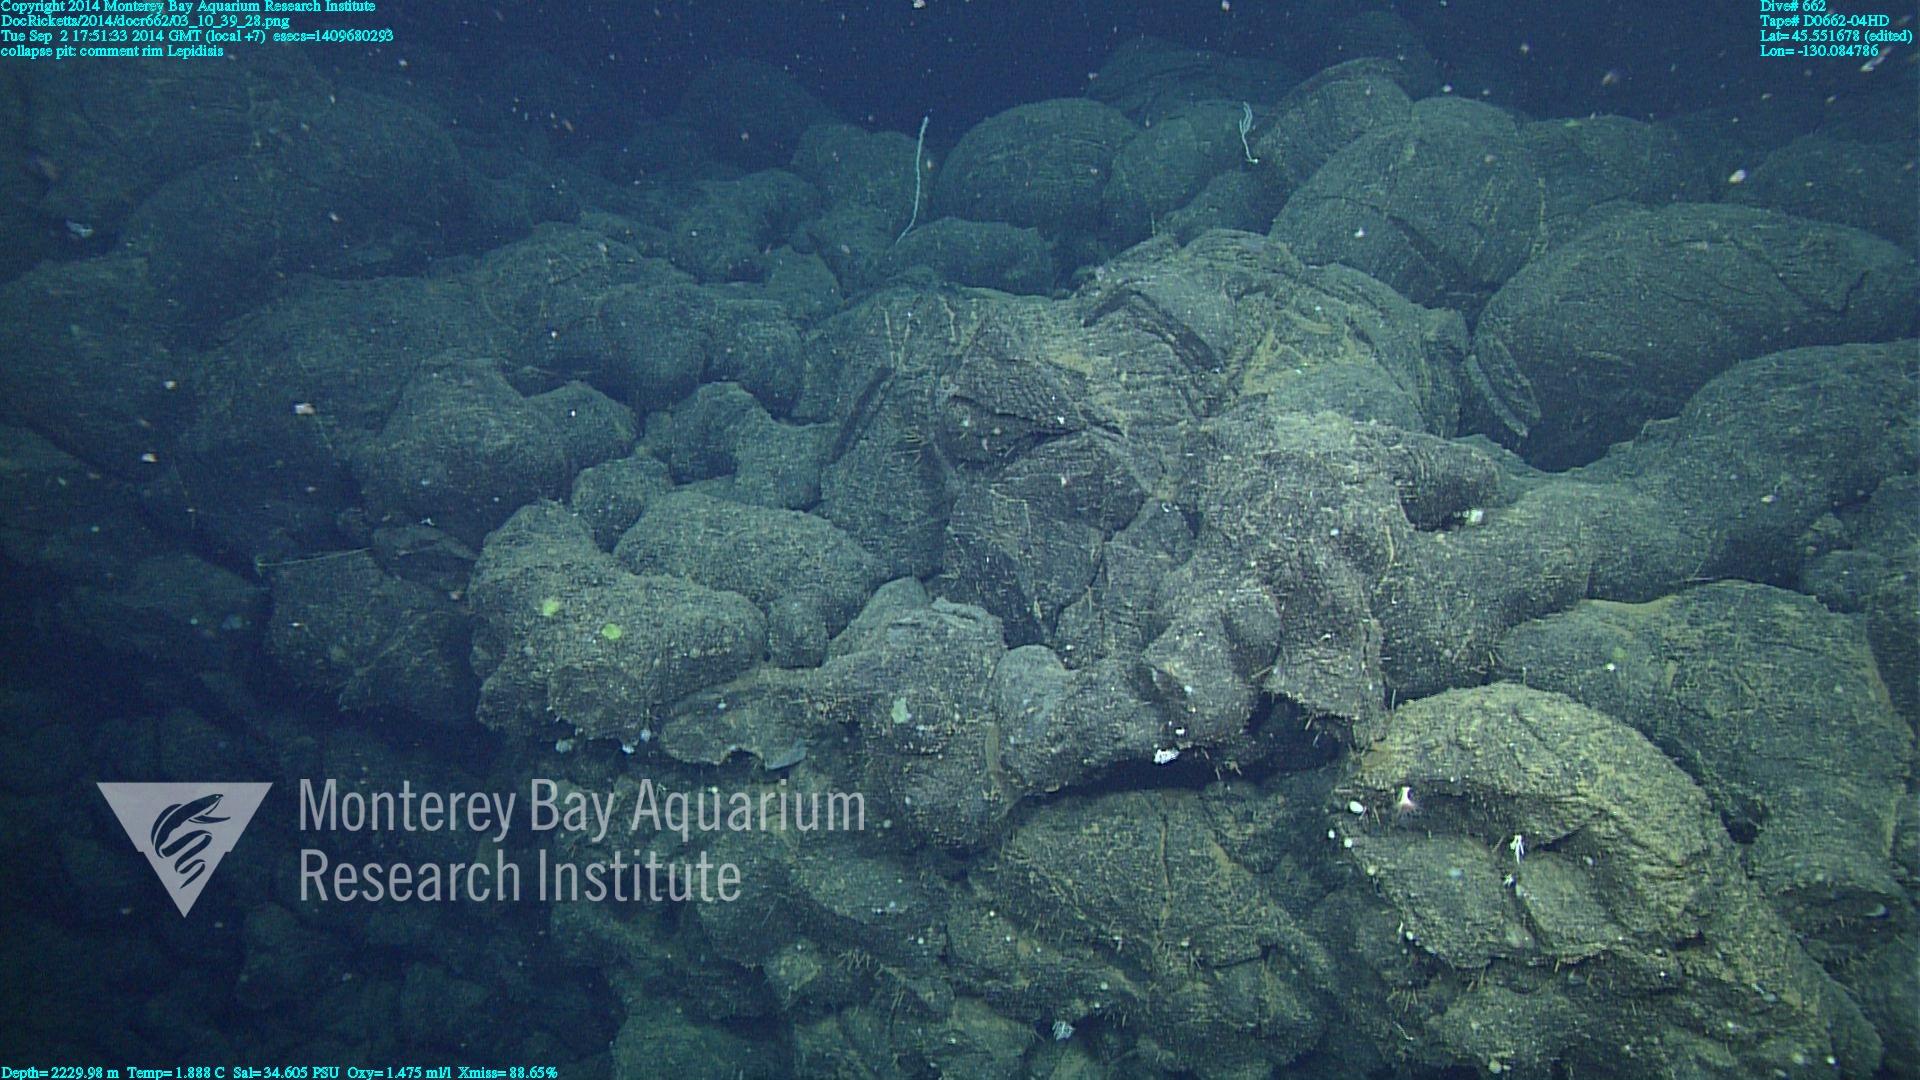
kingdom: Animalia
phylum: Cnidaria
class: Anthozoa
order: Scleralcyonacea
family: Keratoisididae
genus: Lepidisis
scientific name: Lepidisis
